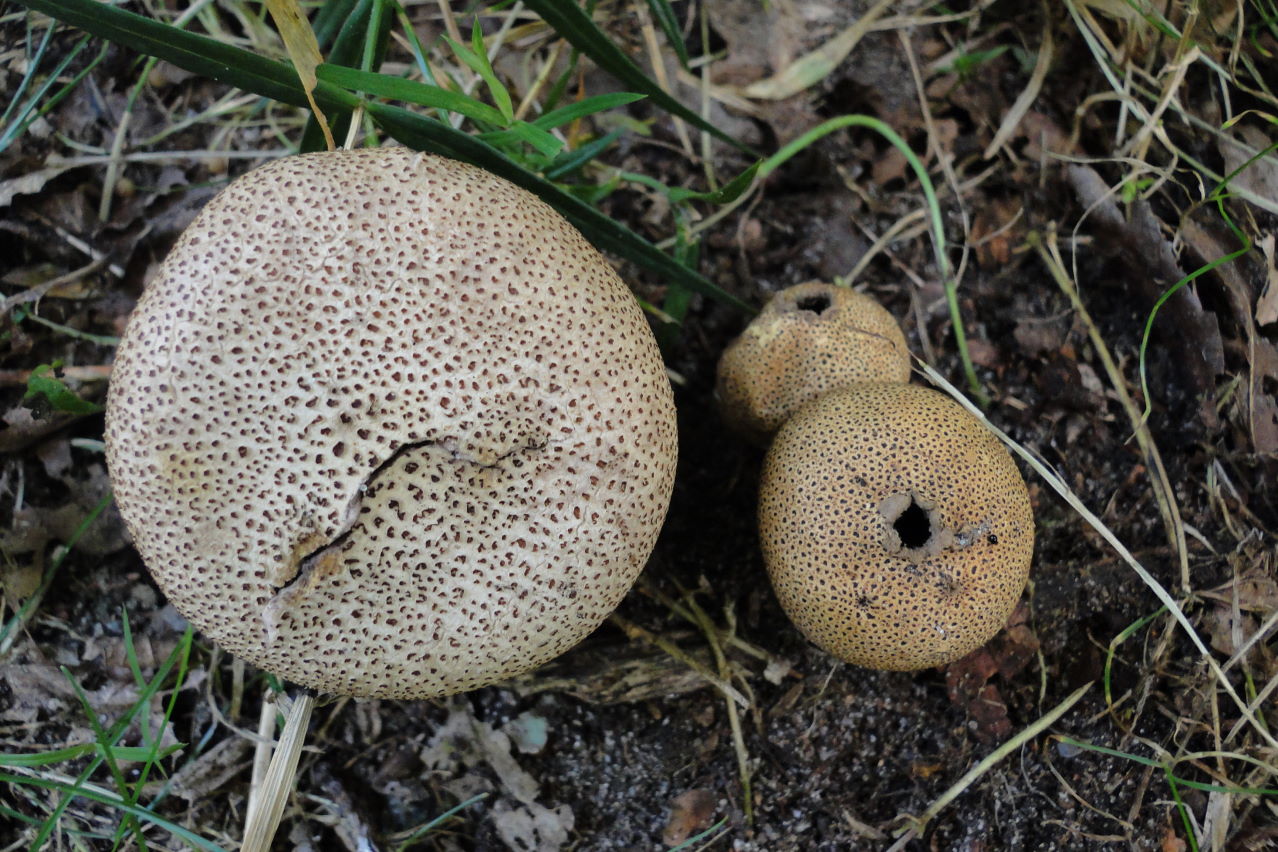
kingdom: Fungi
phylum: Basidiomycota
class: Agaricomycetes
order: Boletales
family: Sclerodermataceae
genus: Scleroderma
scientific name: Scleroderma areolatum
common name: plettet bruskbold
